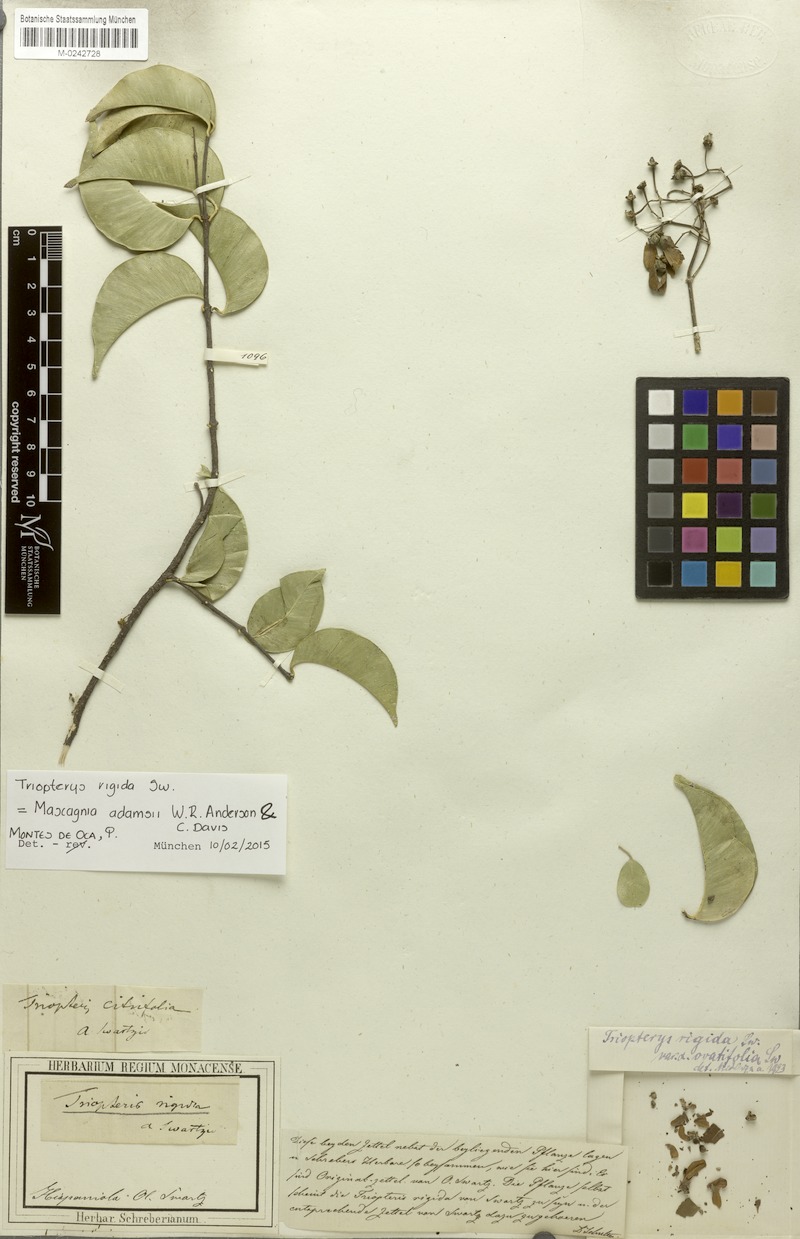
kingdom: Plantae
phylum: Tracheophyta
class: Magnoliopsida
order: Malpighiales
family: Malpighiaceae
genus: Mascagnia
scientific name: Mascagnia adamsii
